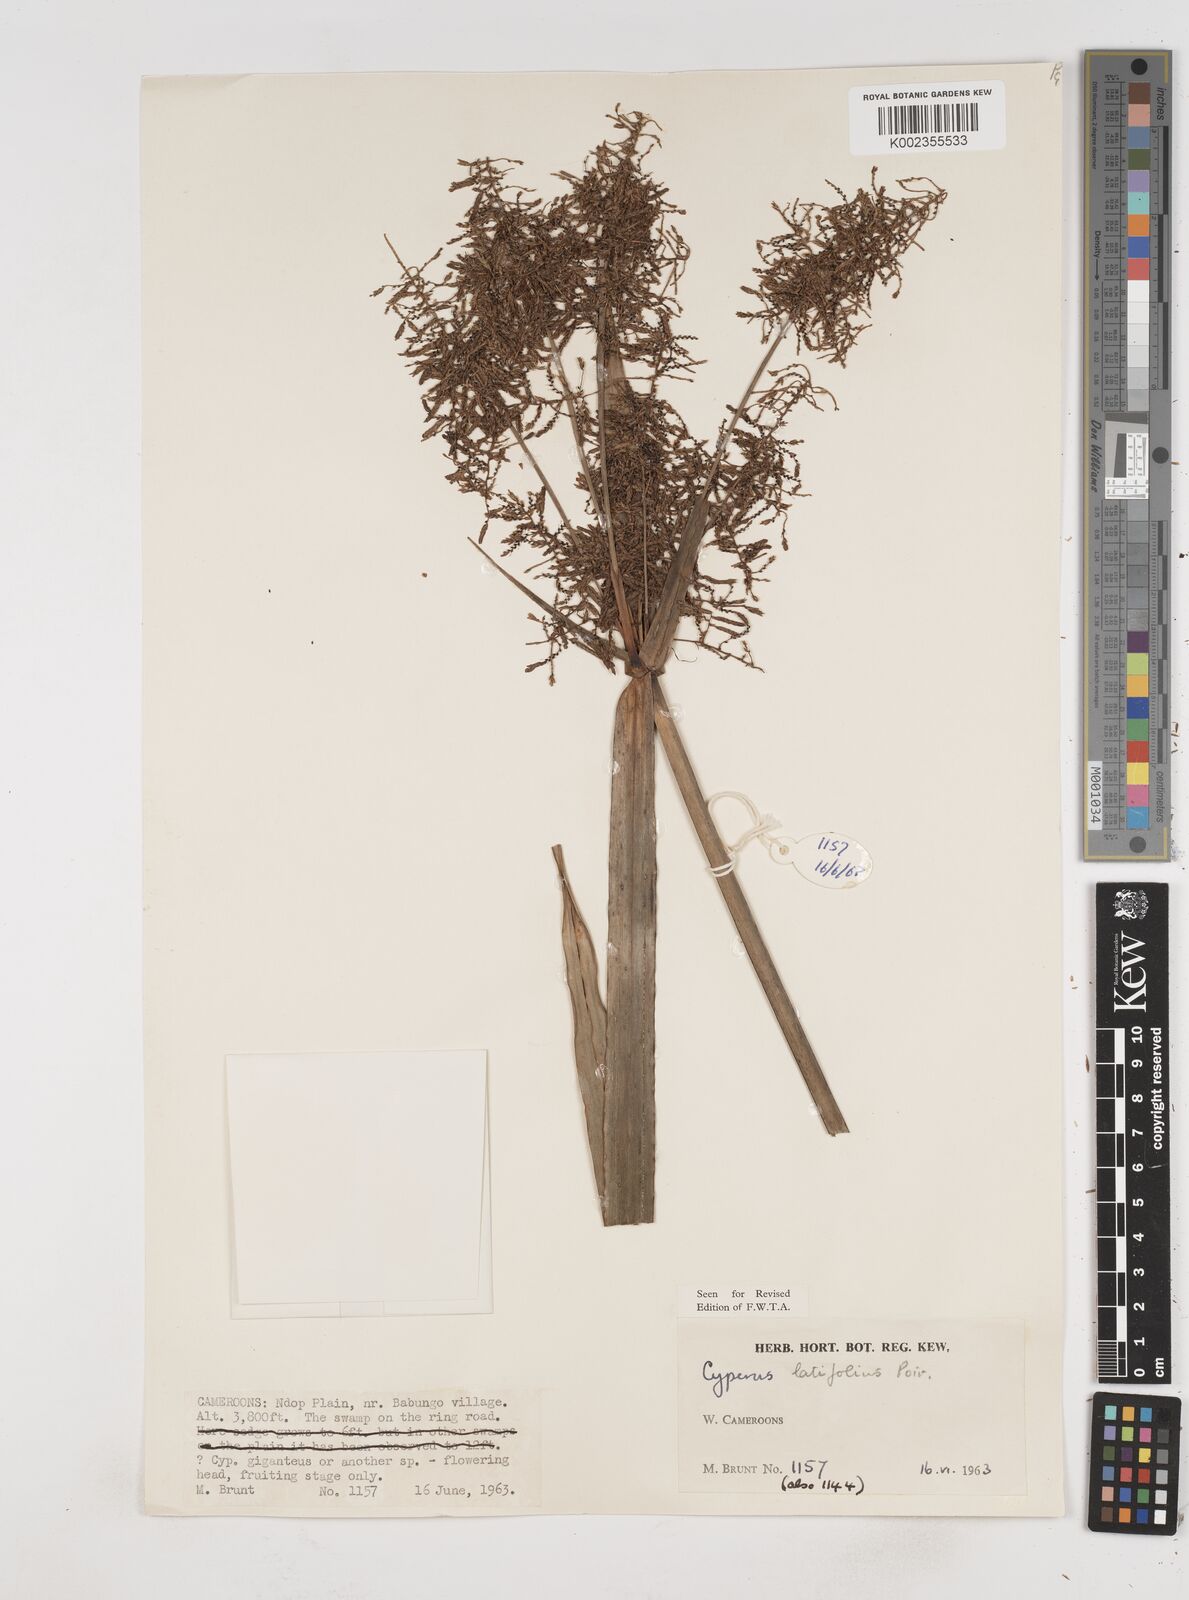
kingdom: Plantae
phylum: Tracheophyta
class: Liliopsida
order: Poales
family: Cyperaceae
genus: Cyperus
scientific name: Cyperus latifolius
